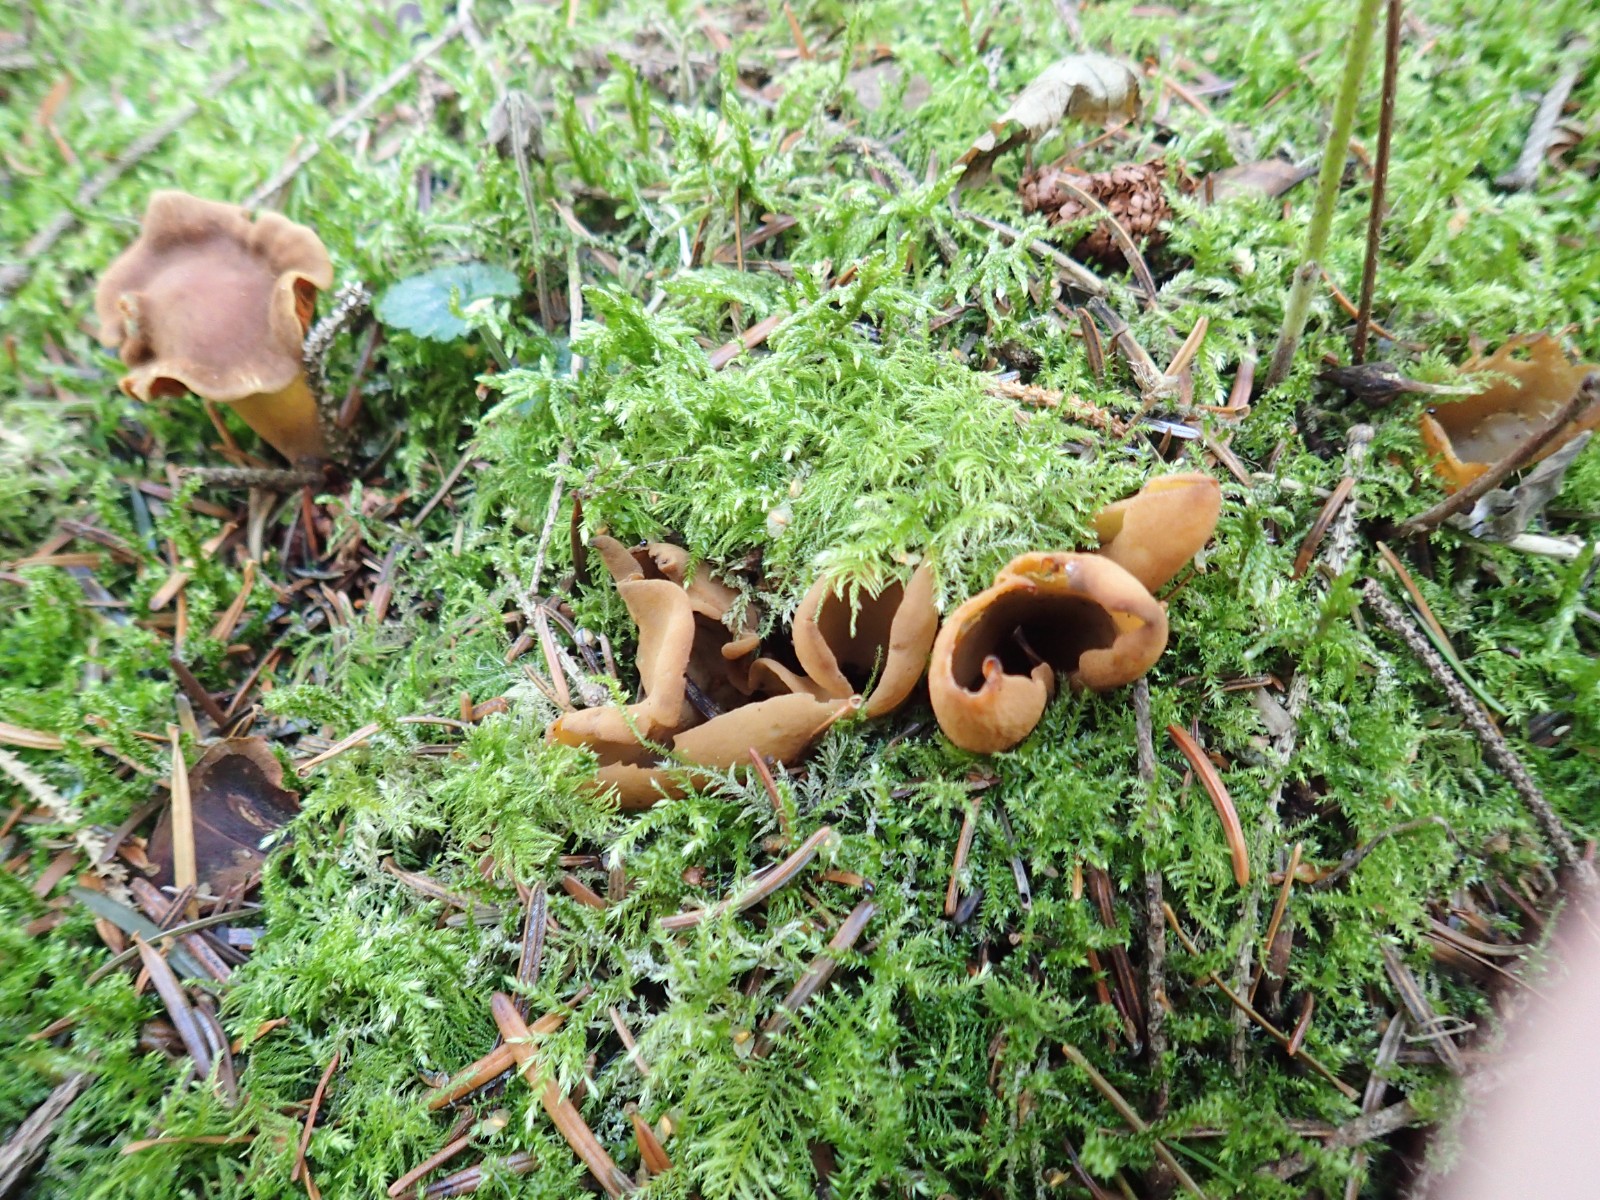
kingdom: Fungi
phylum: Ascomycota
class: Pezizomycetes
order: Pezizales
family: Otideaceae
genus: Otidea
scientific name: Otidea tuomikoskii
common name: kano-ørebæger
